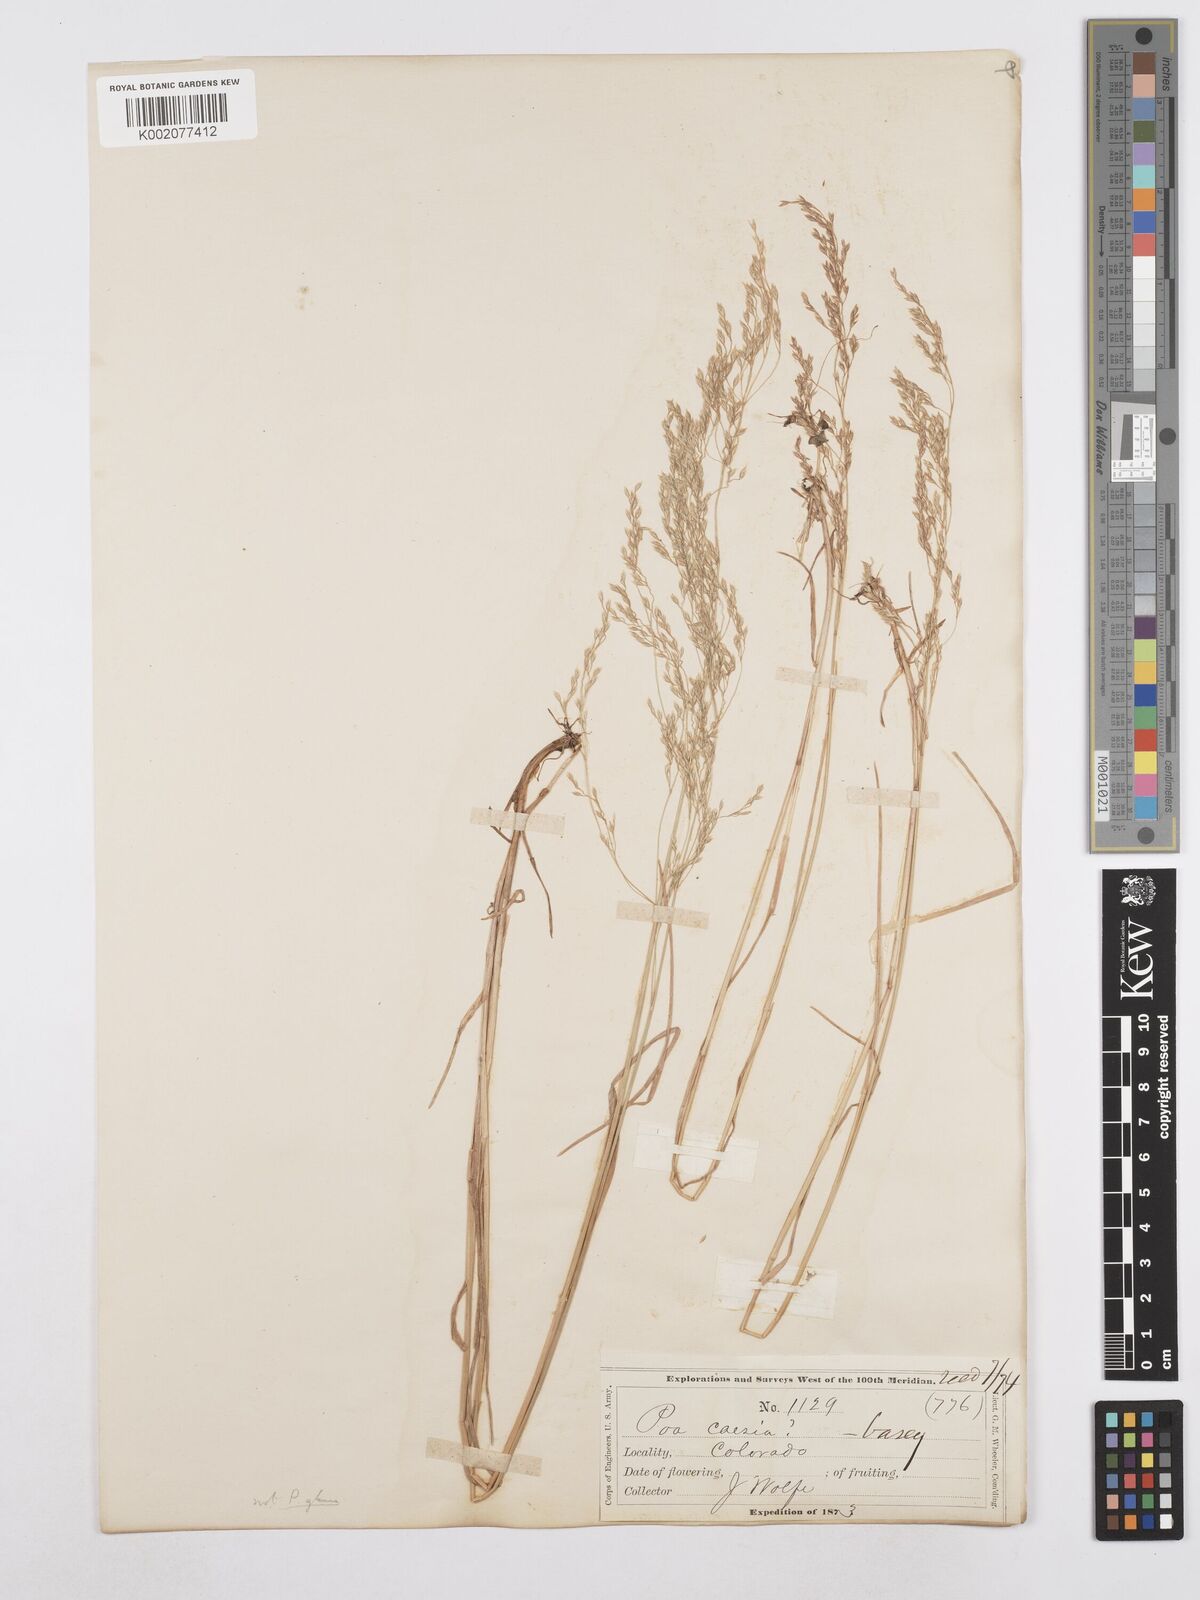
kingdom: Plantae
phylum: Tracheophyta
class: Liliopsida
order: Poales
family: Poaceae
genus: Poa
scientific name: Poa glauca
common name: Glaucous bluegrass
